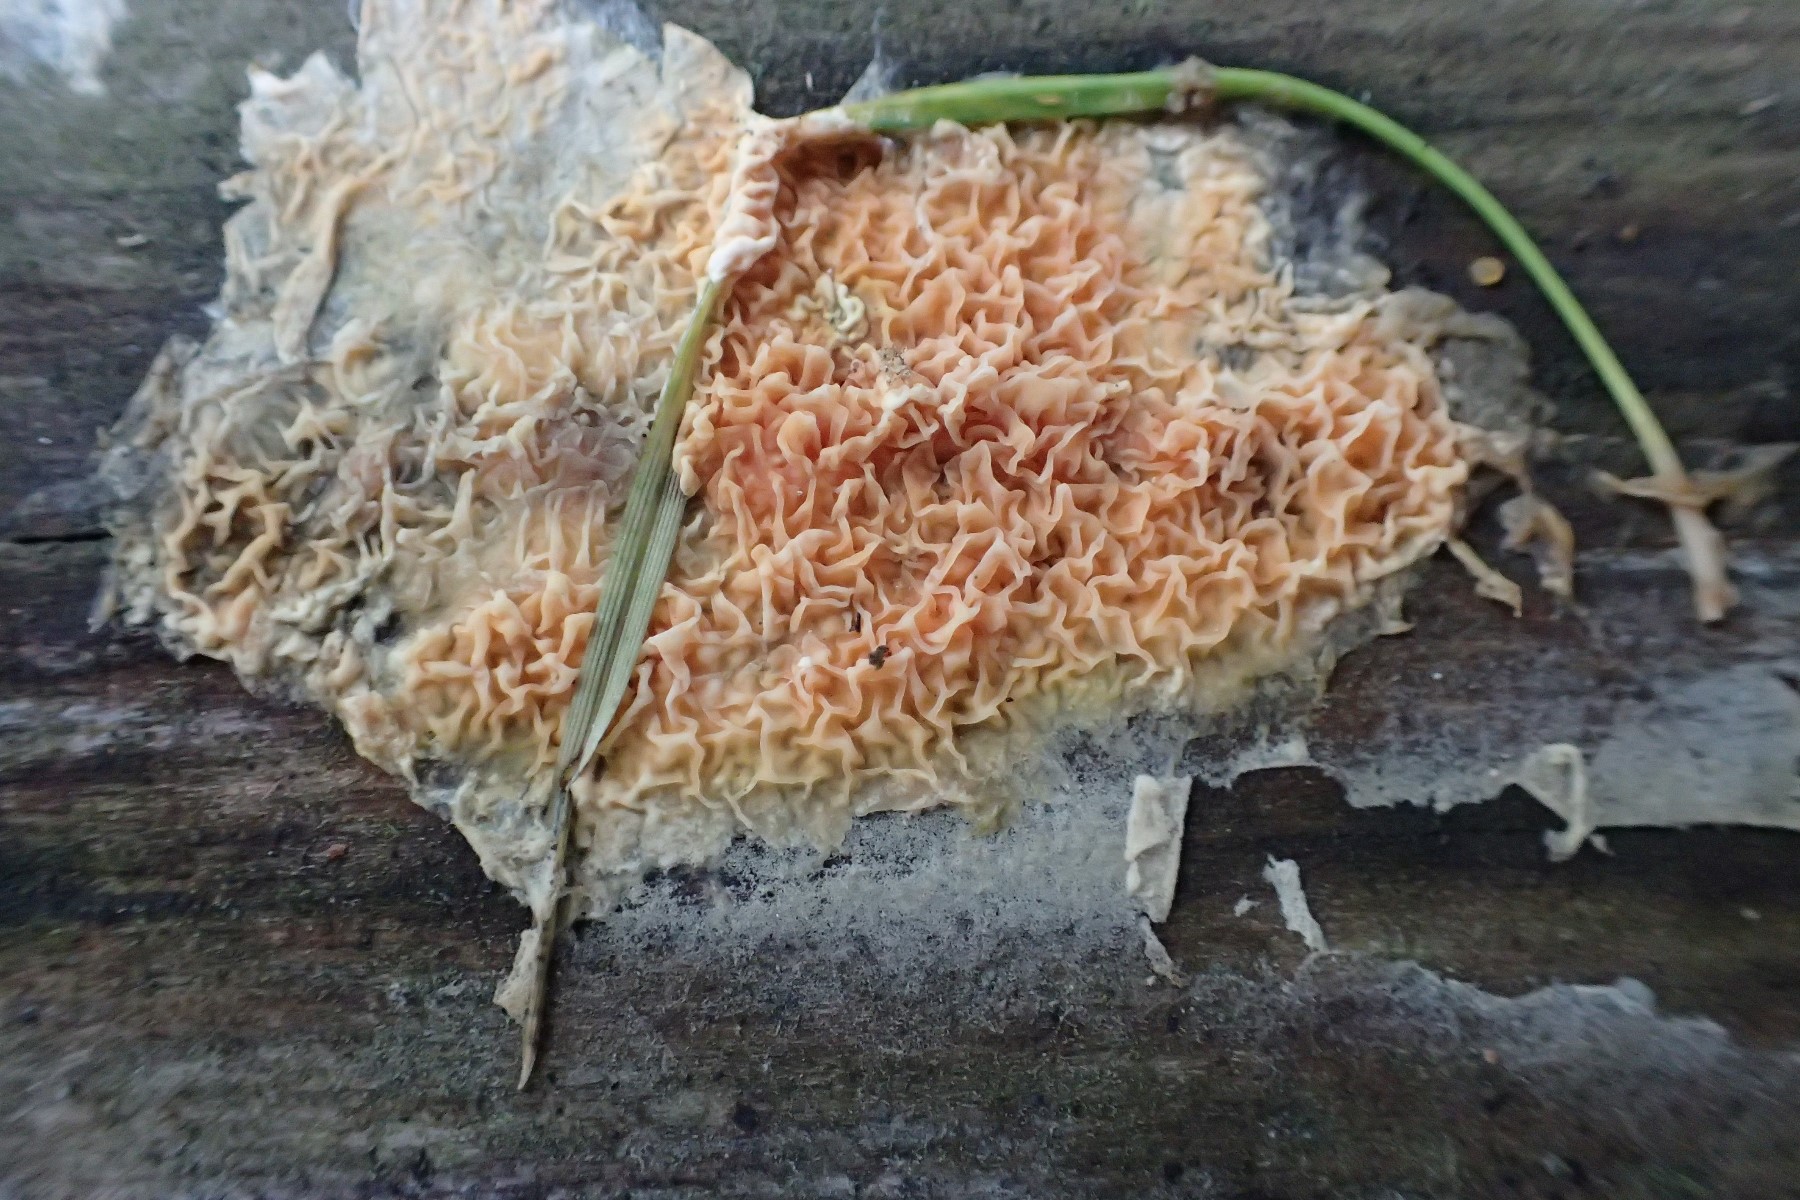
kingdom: Fungi
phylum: Basidiomycota
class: Agaricomycetes
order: Boletales
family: Hygrophoropsidaceae
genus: Leucogyrophana
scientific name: Leucogyrophana
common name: hussvamp
